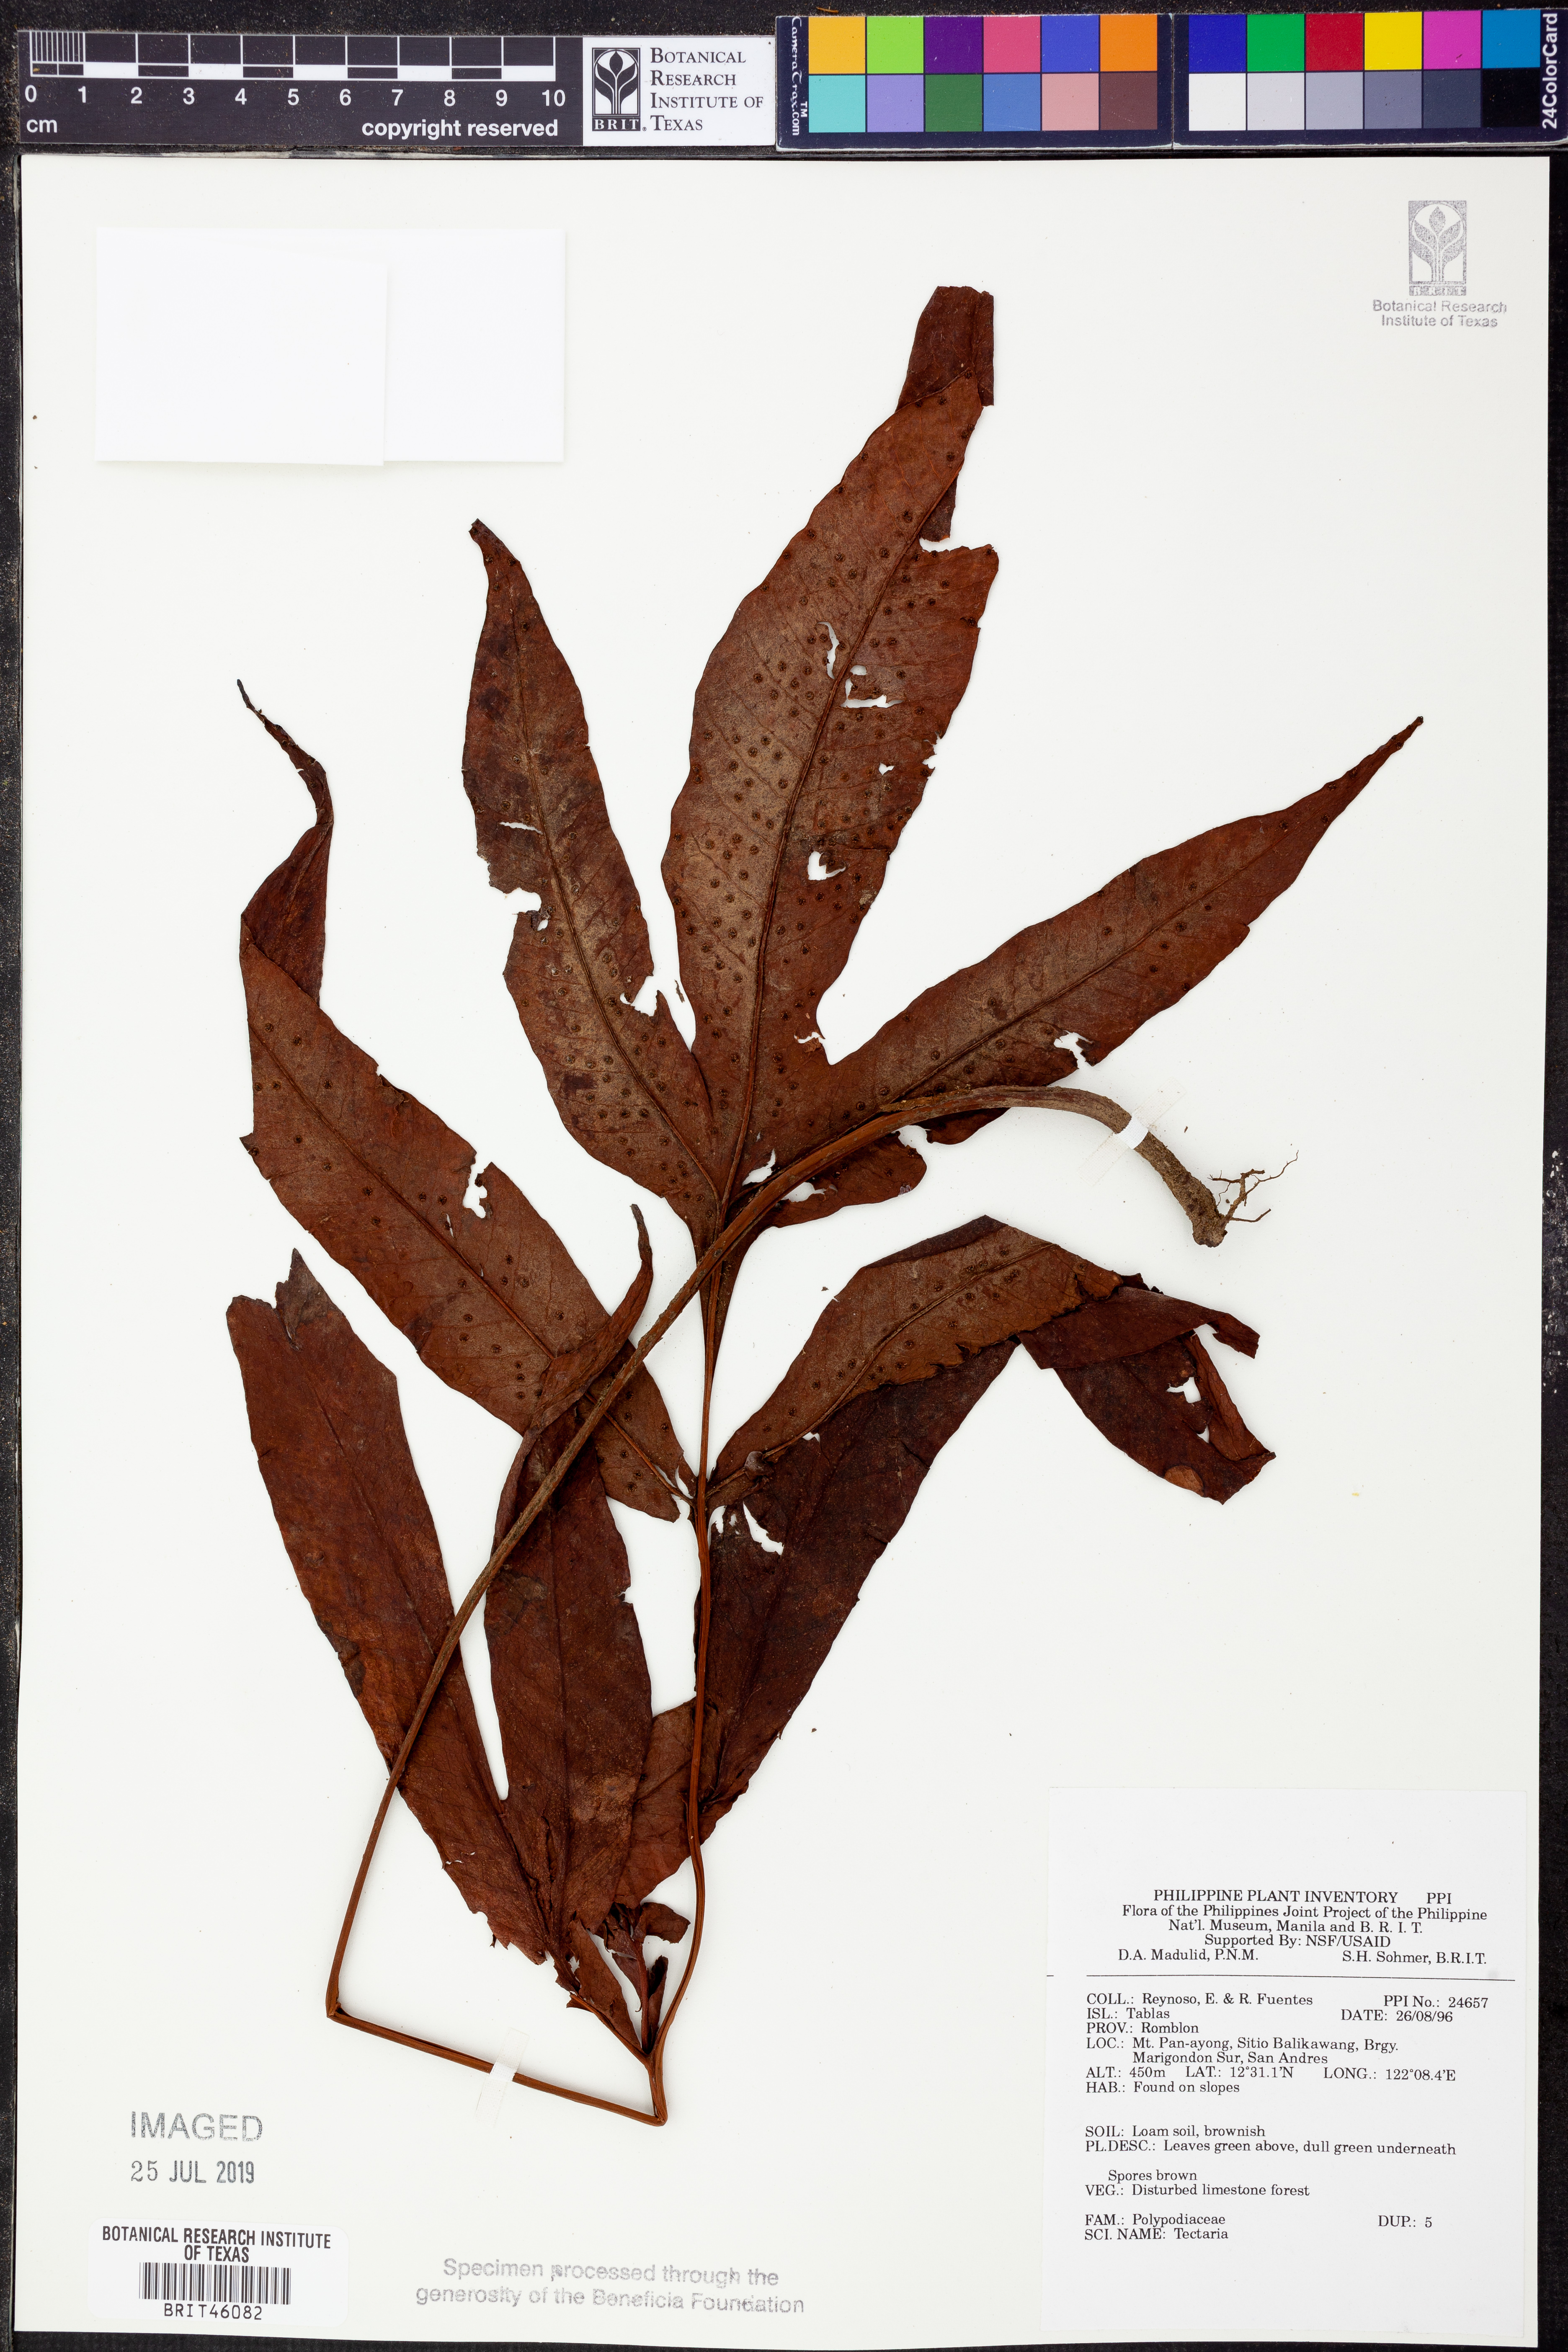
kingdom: Plantae
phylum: Tracheophyta
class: Polypodiopsida
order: Polypodiales
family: Tectariaceae
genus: Tectaria
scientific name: Tectaria
